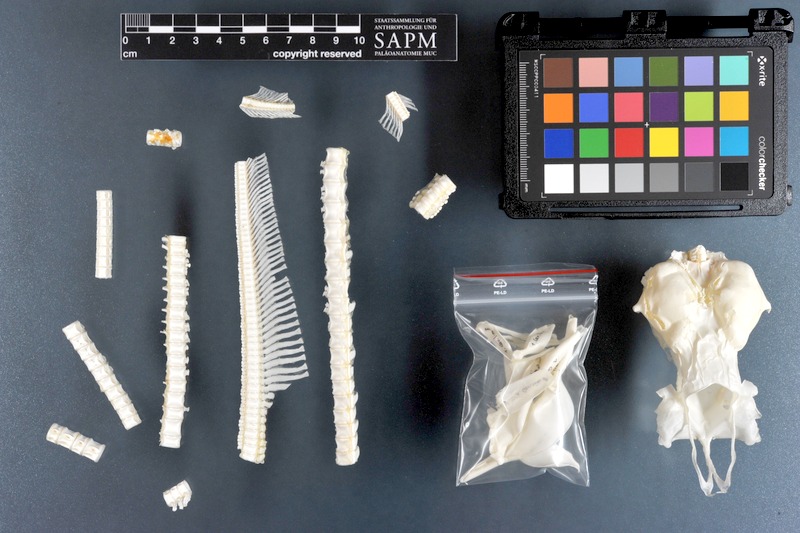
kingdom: Animalia
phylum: Chordata
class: Elasmobranchii
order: Carcharhiniformes
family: Carcharhinidae
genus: Carcharhinus
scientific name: Carcharhinus limbatus
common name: Blacktip shark
